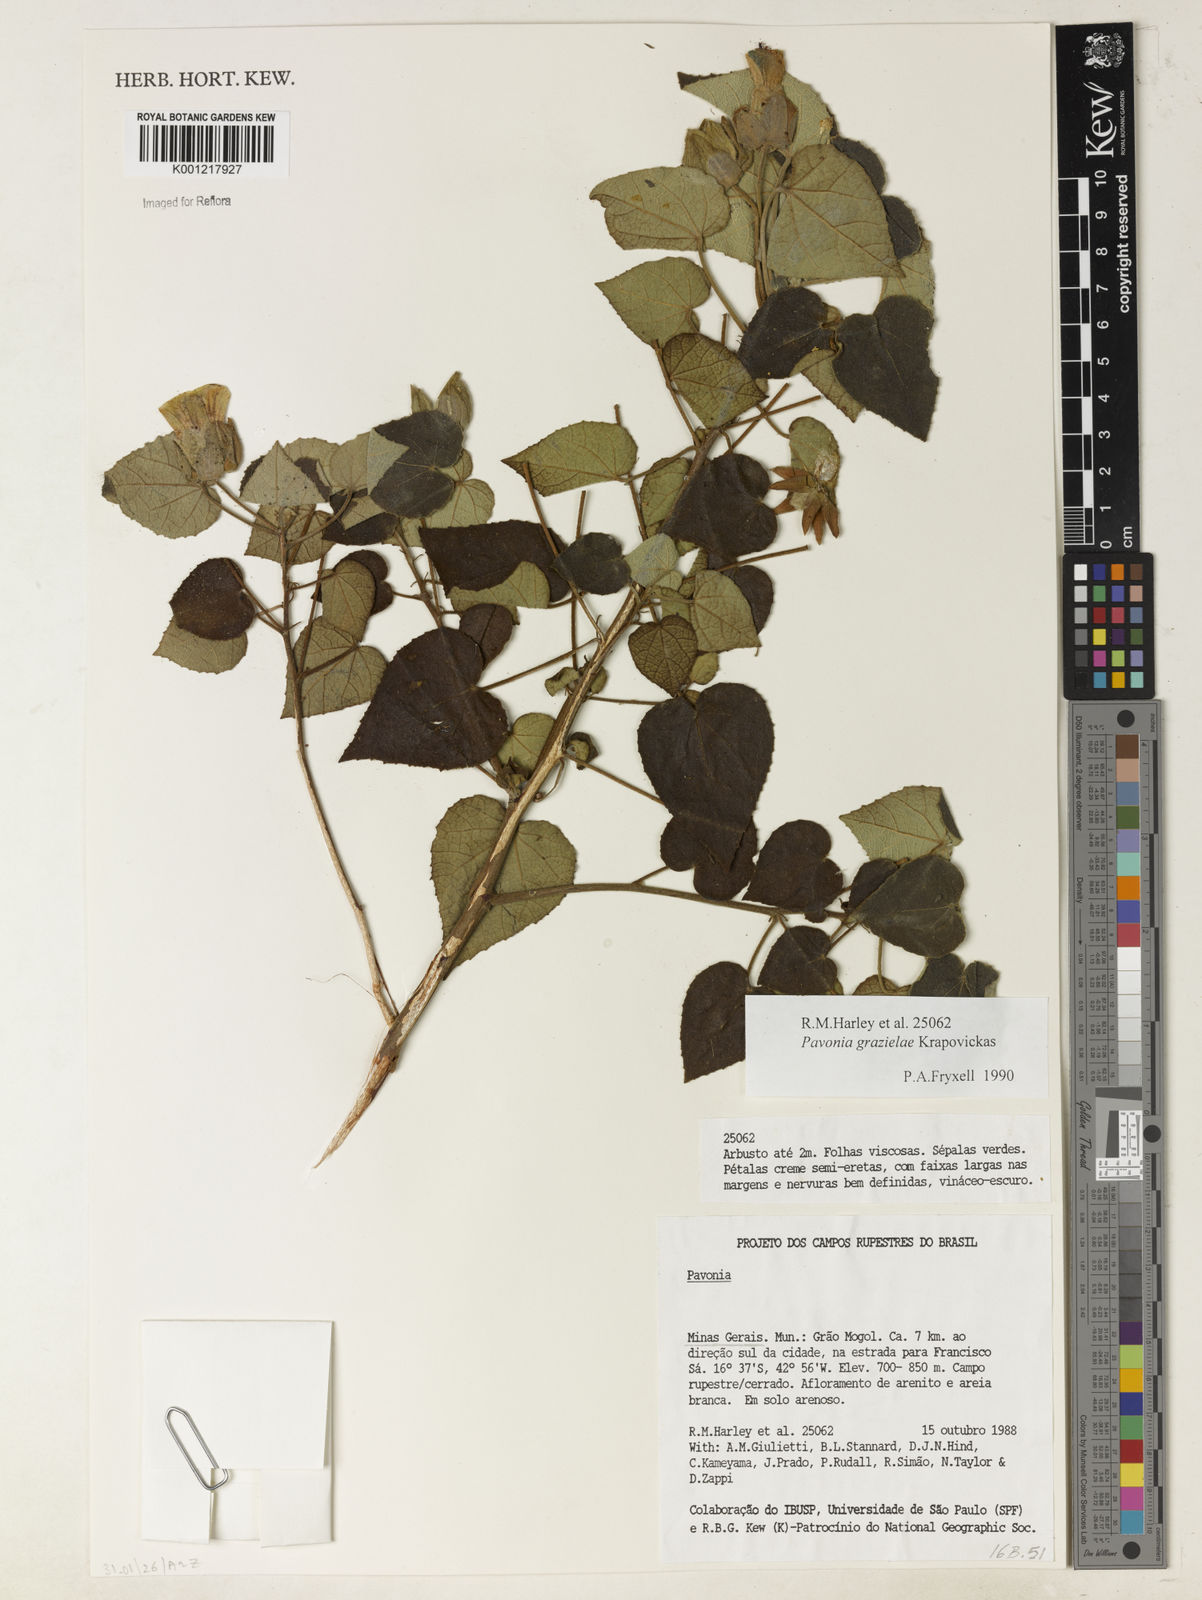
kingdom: Plantae
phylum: Tracheophyta
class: Magnoliopsida
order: Malvales
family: Malvaceae
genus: Pavonia
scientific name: Pavonia grazielae
